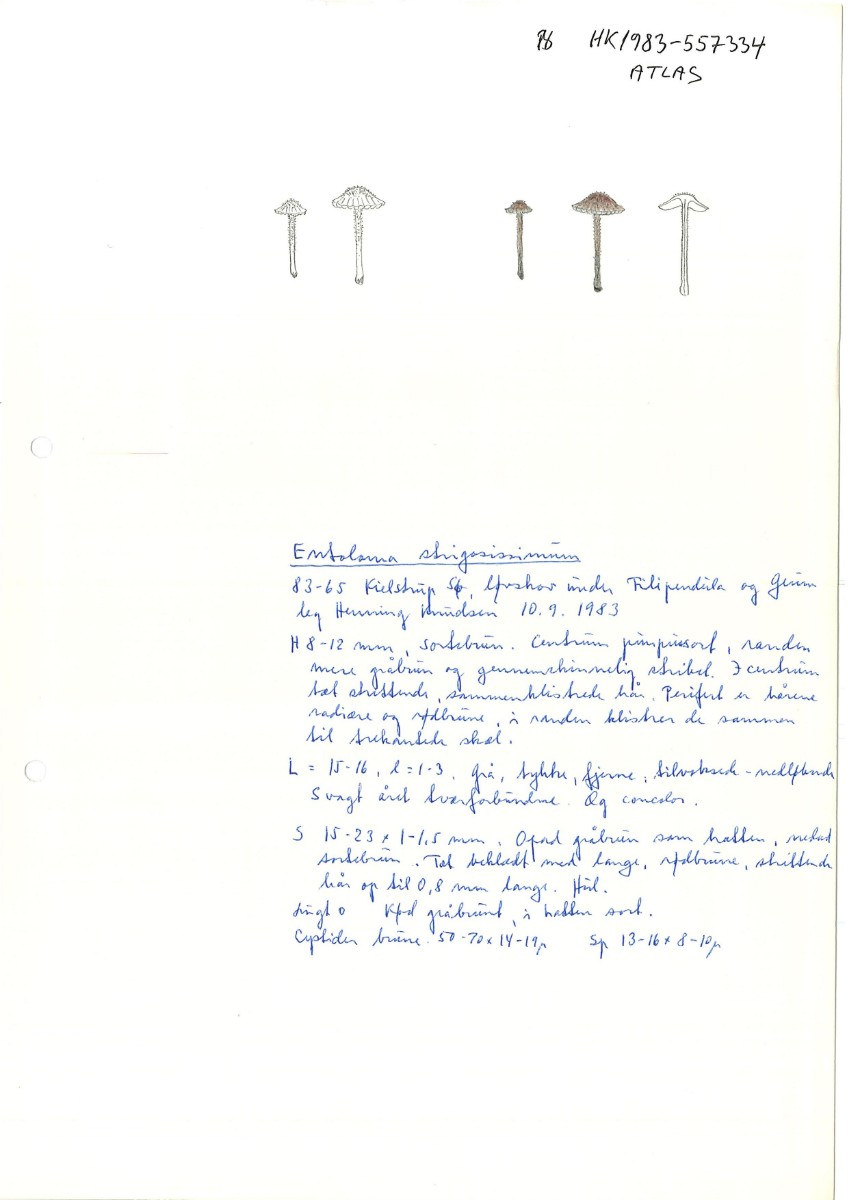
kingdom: Fungi
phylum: Basidiomycota
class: Agaricomycetes
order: Agaricales
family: Entolomataceae
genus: Entoloma
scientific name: Entoloma strigosissimum
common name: stridhåret rødblad
